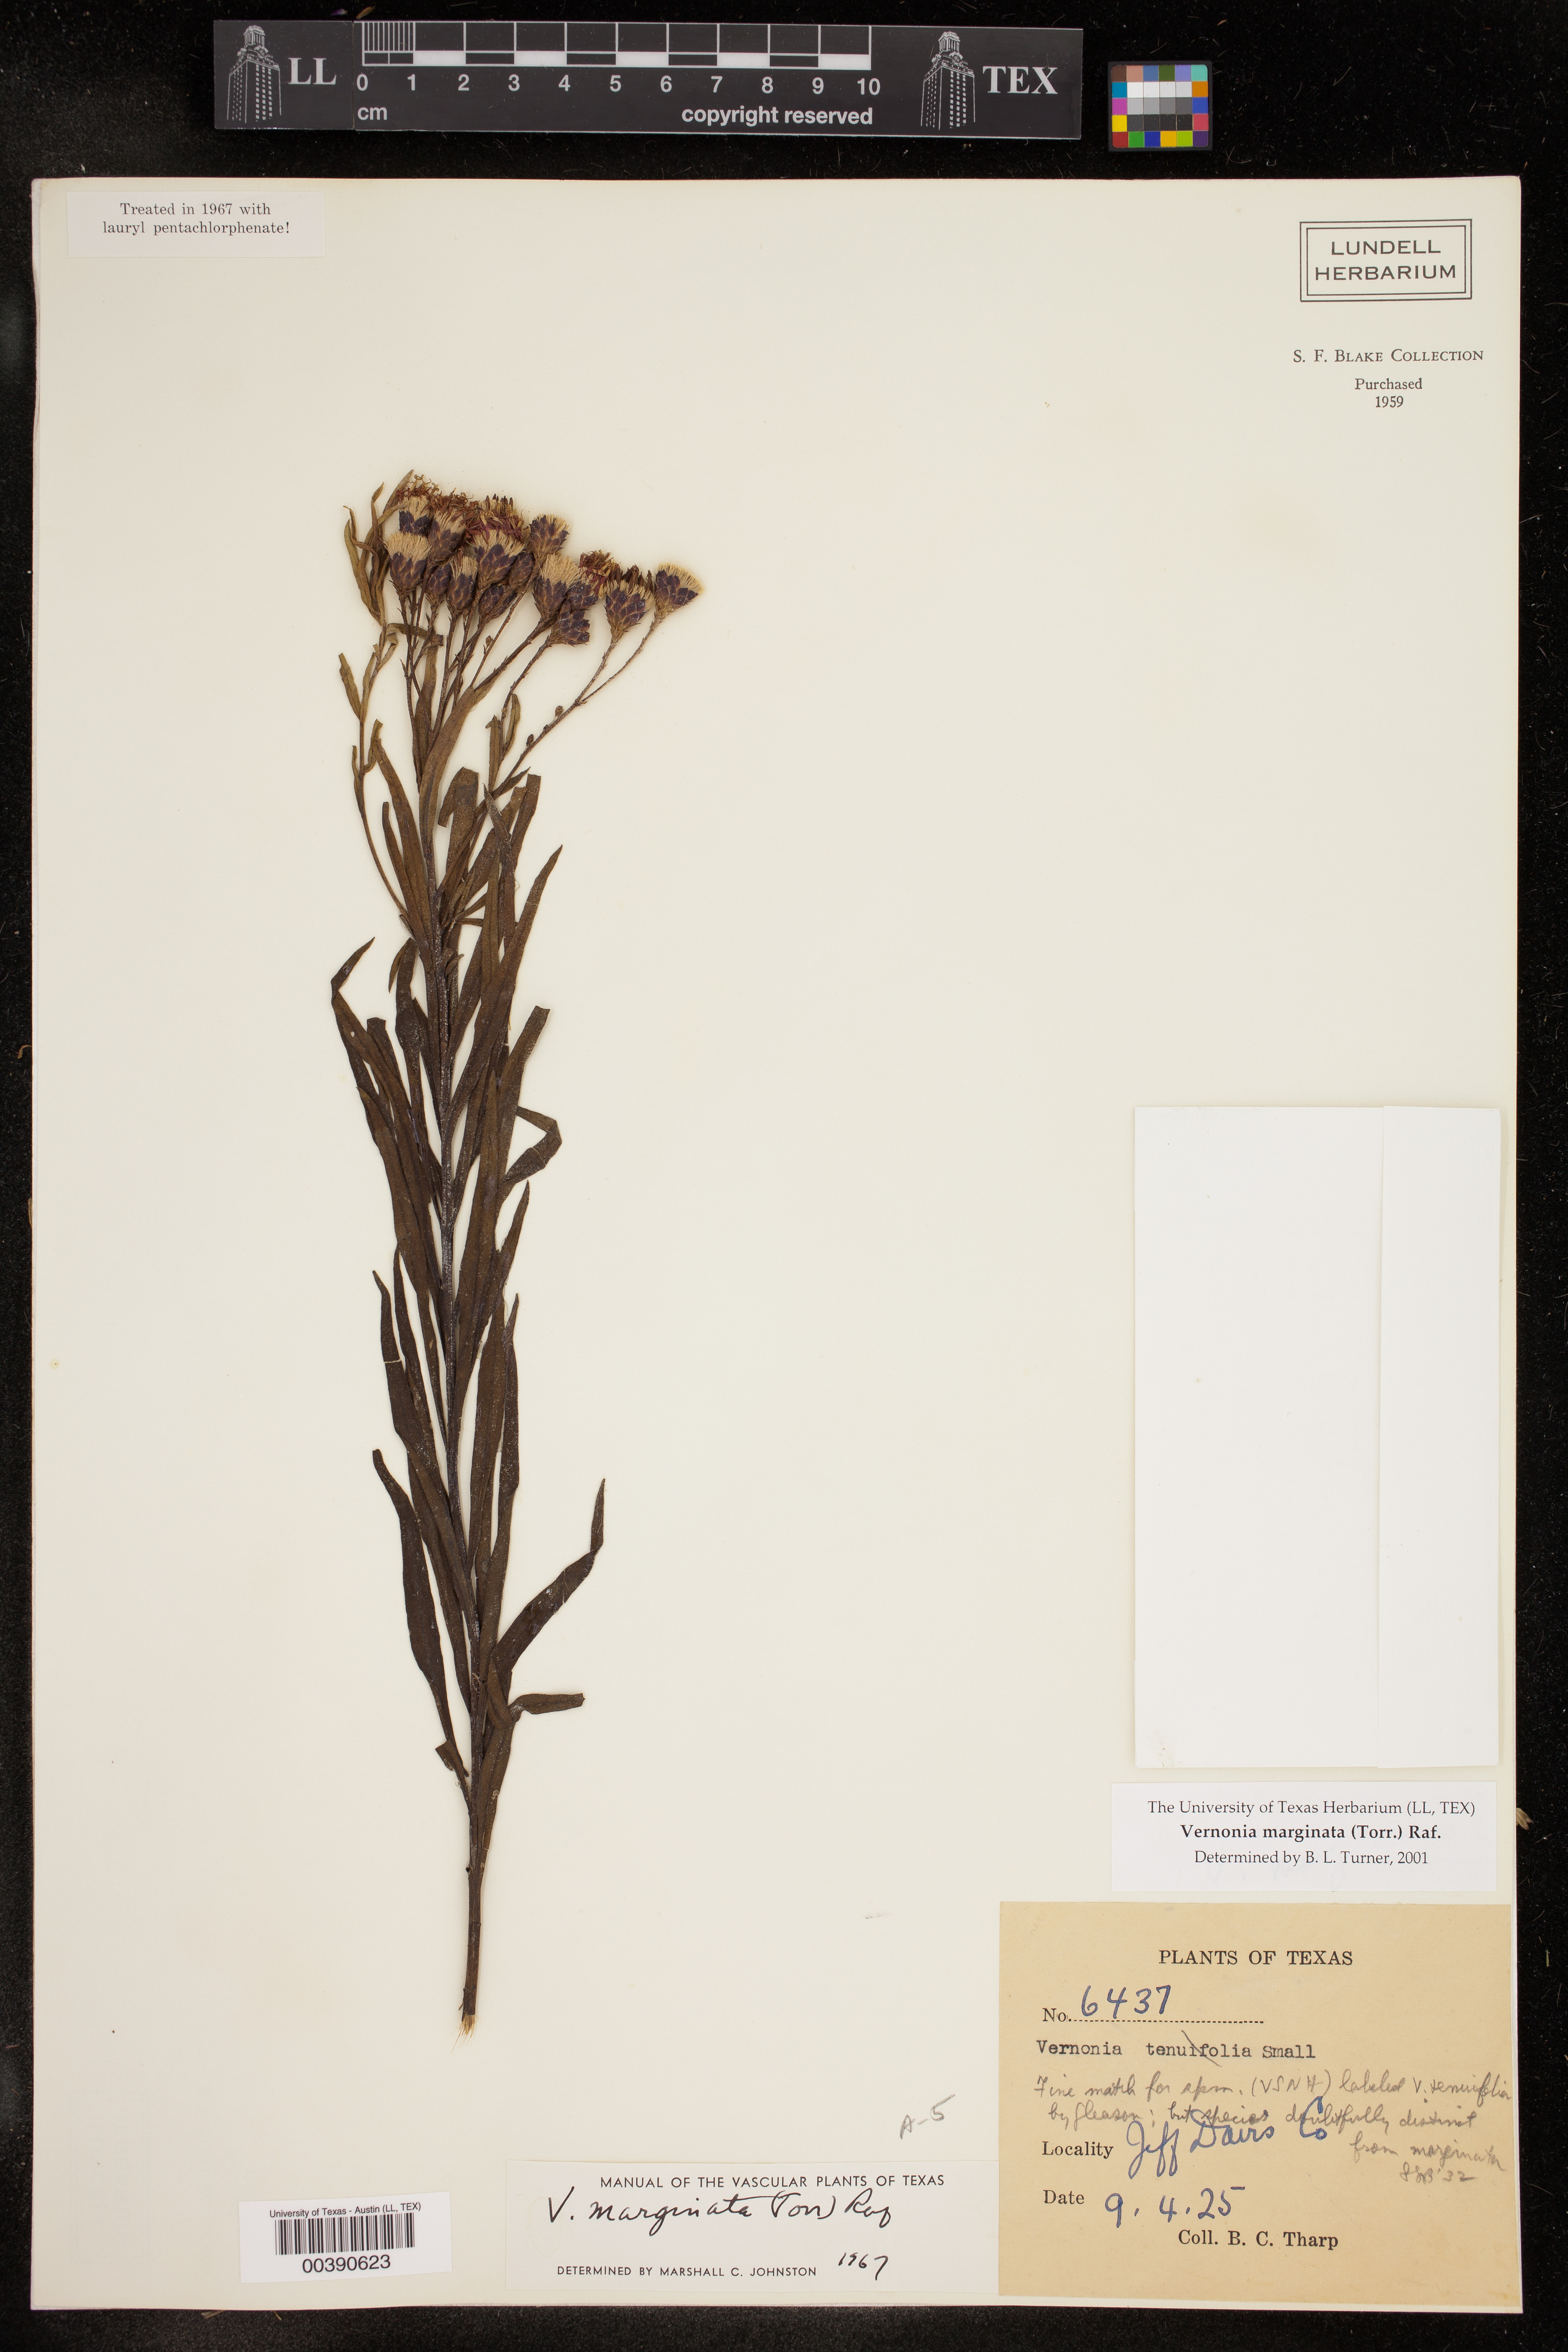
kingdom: Plantae
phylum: Tracheophyta
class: Magnoliopsida
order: Asterales
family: Asteraceae
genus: Vernonia
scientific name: Vernonia marginata
